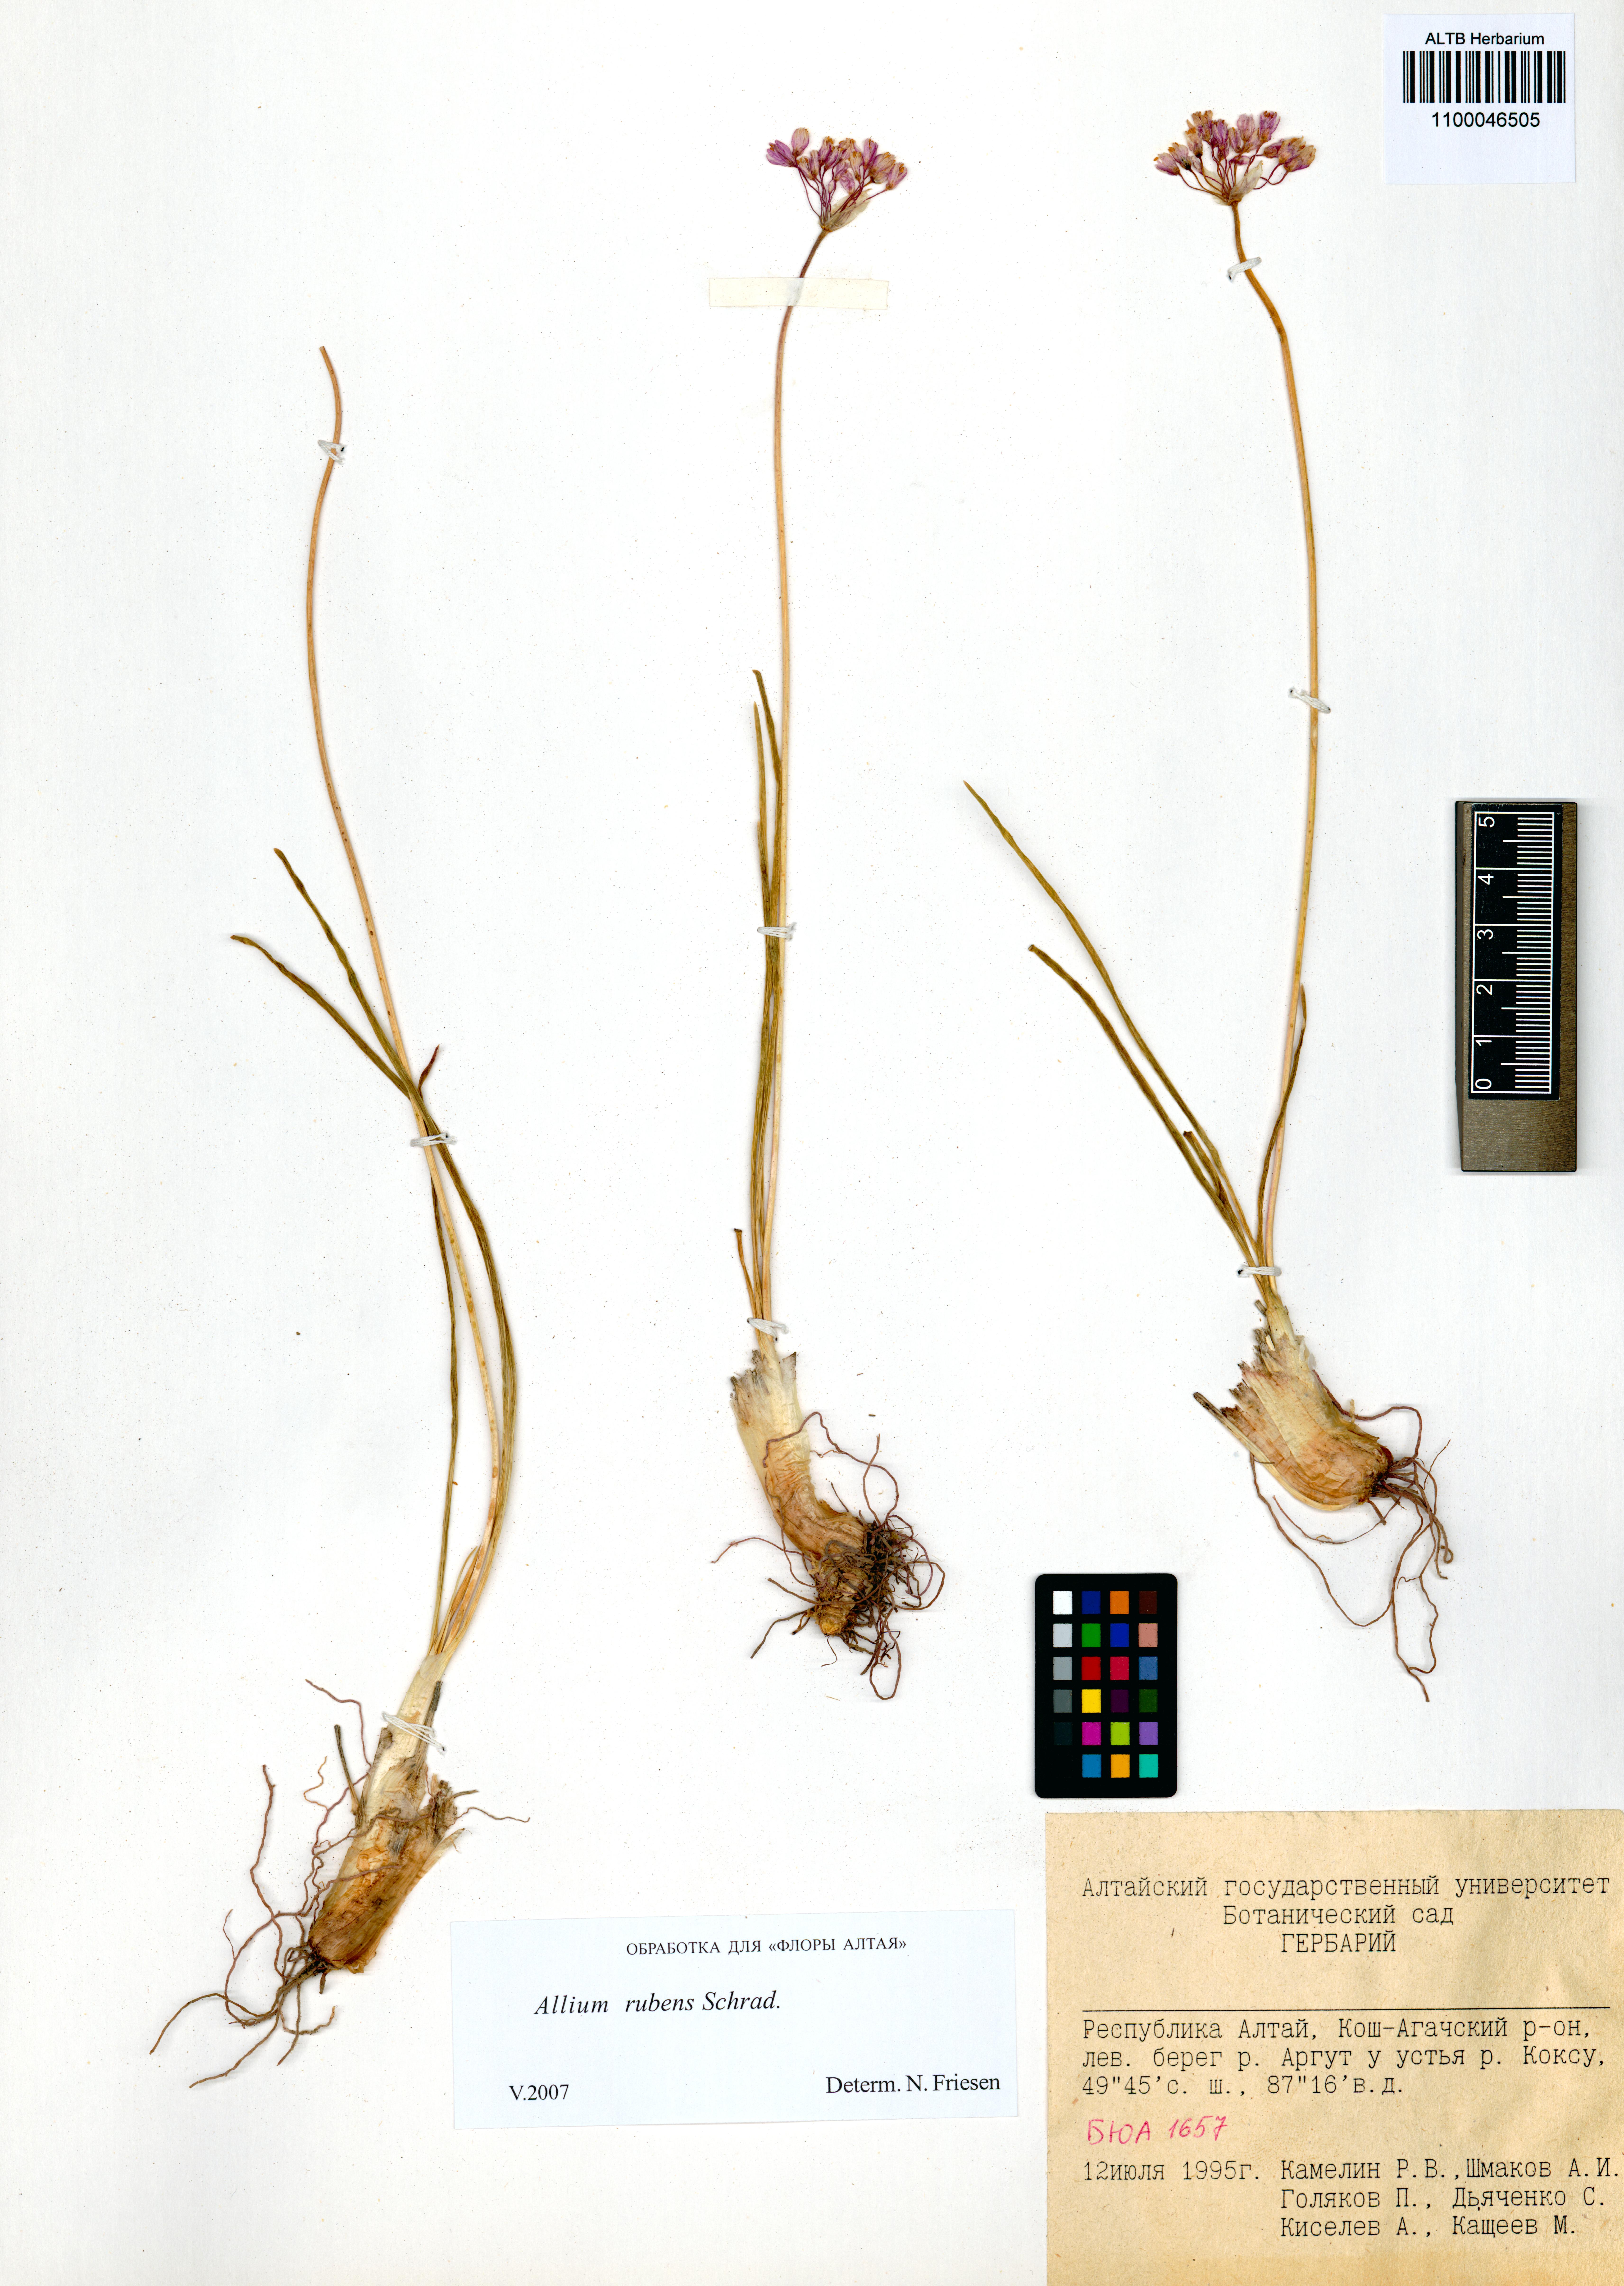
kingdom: Plantae
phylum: Tracheophyta
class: Liliopsida
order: Asparagales
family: Amaryllidaceae
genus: Allium
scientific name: Allium rubens
